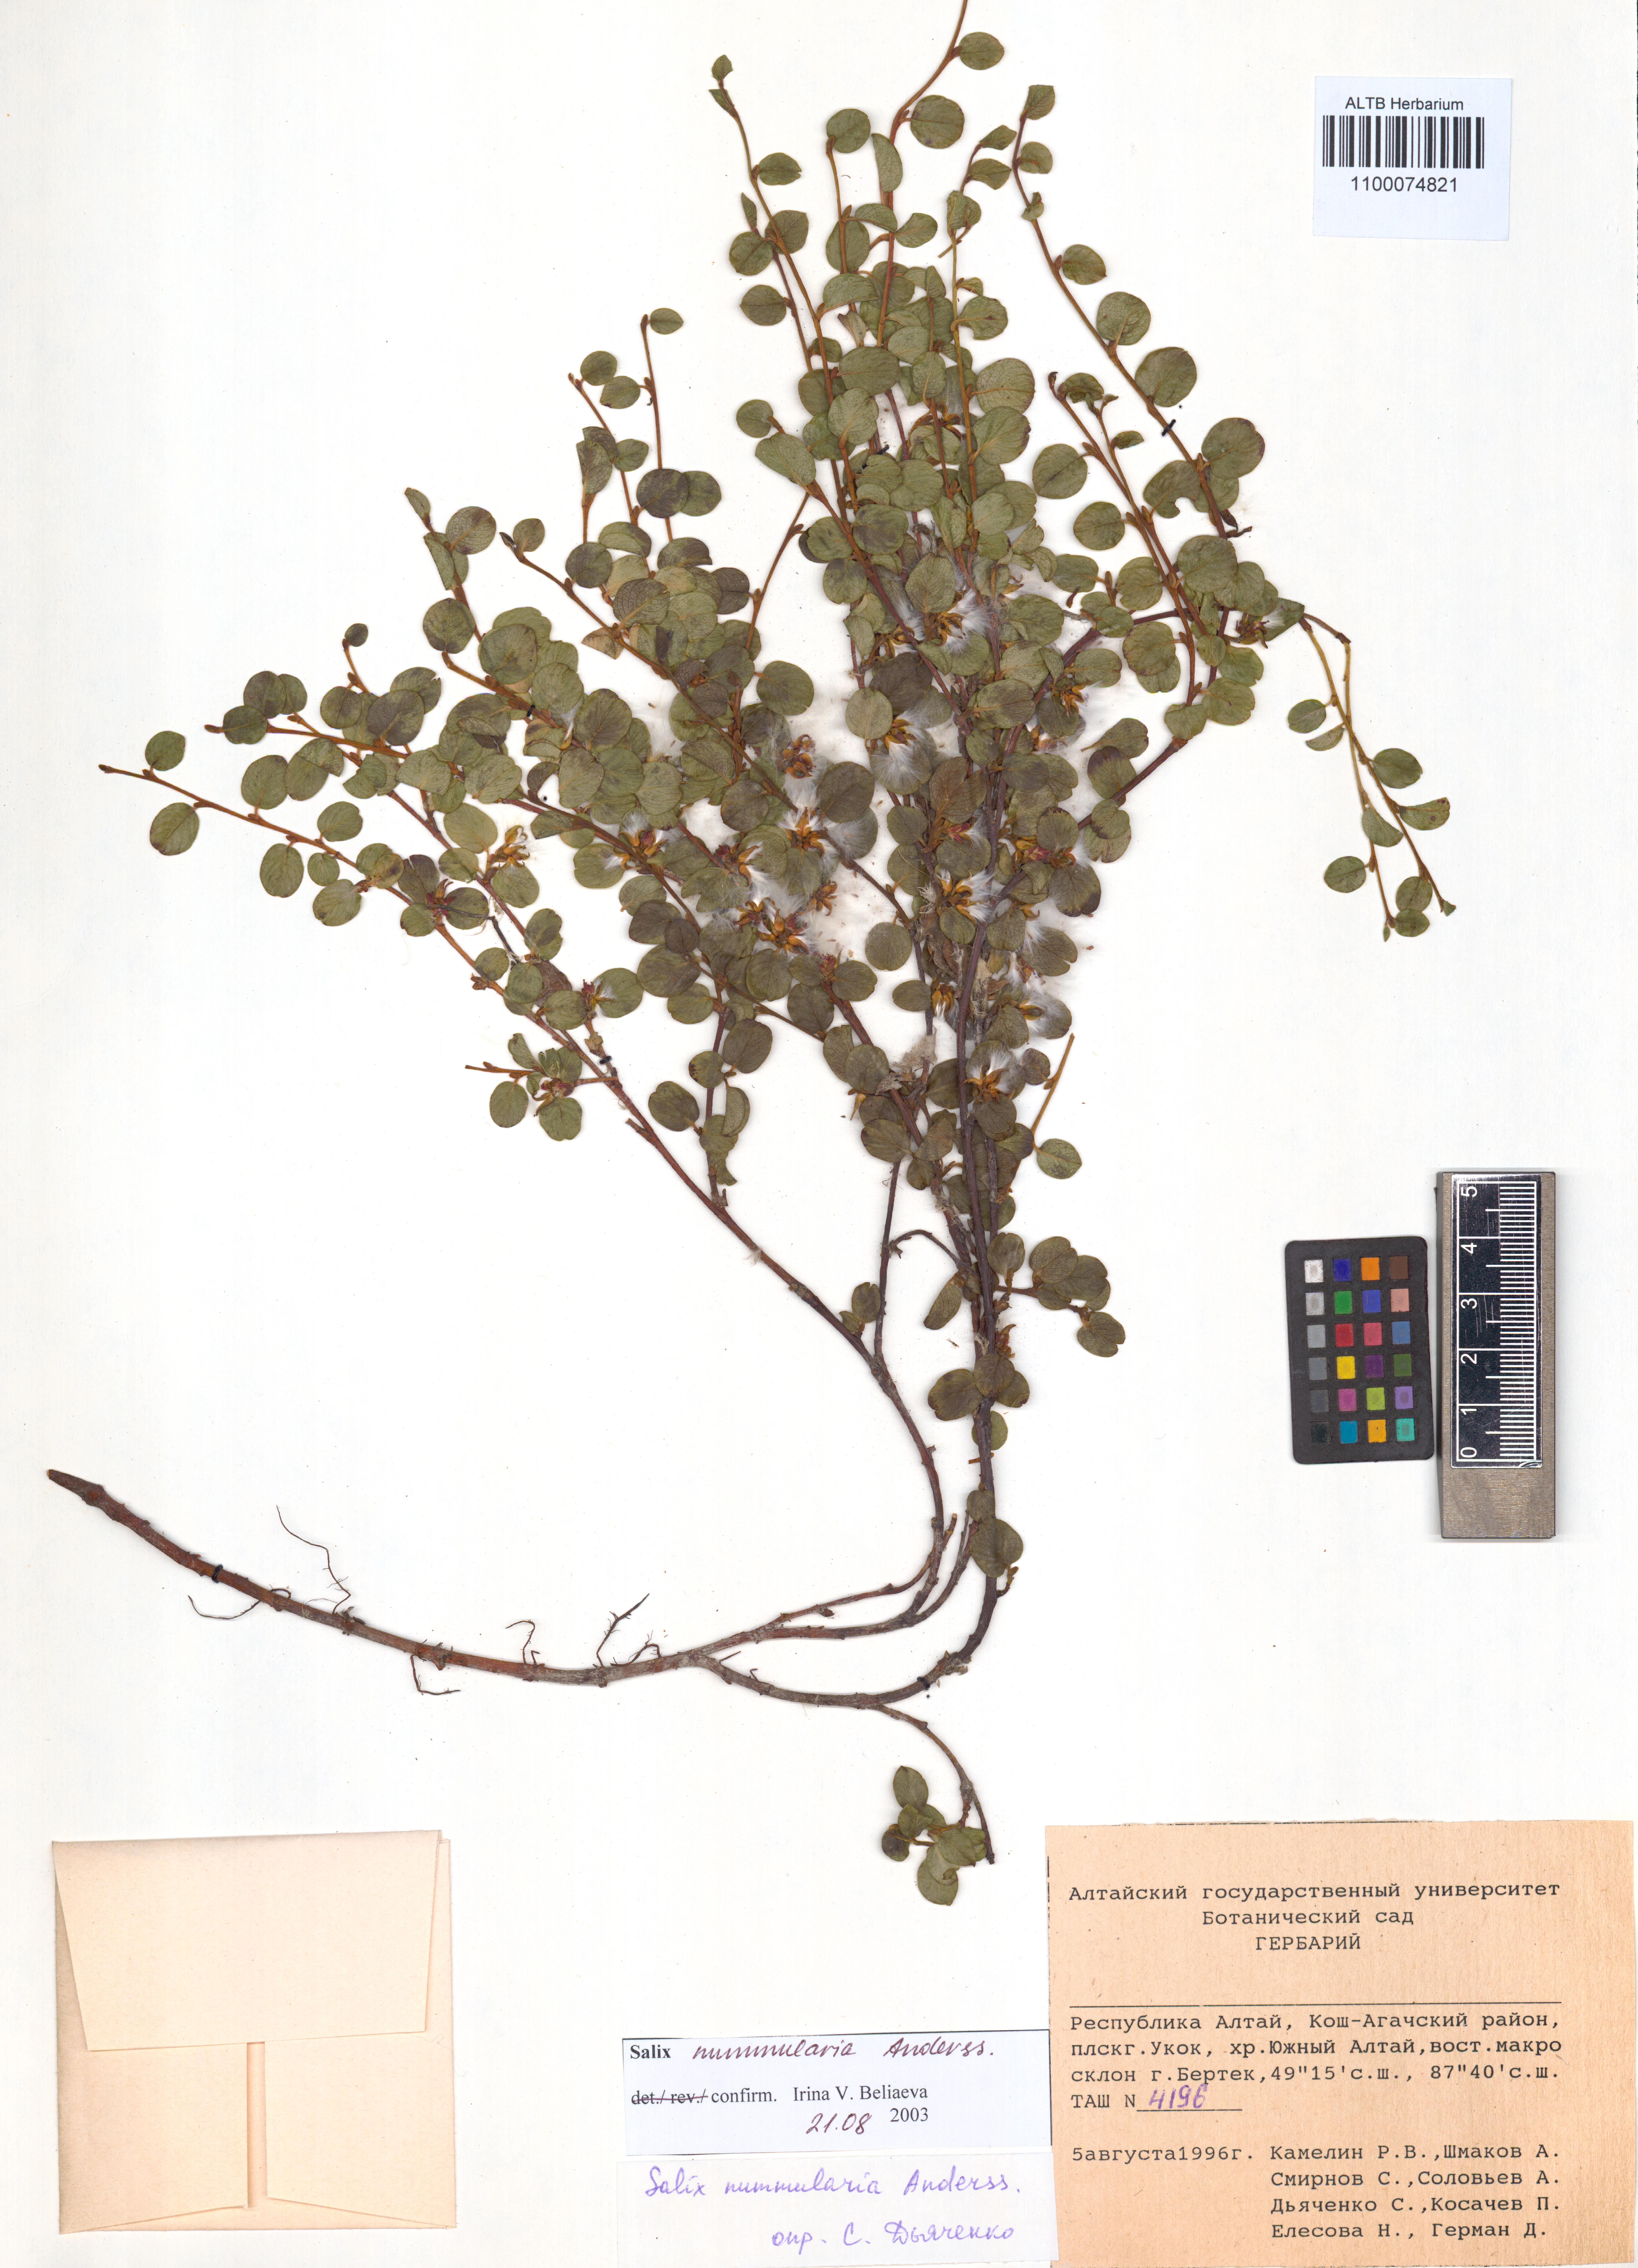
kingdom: Plantae
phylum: Tracheophyta
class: Magnoliopsida
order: Malpighiales
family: Salicaceae
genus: Salix
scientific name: Salix nummularia
